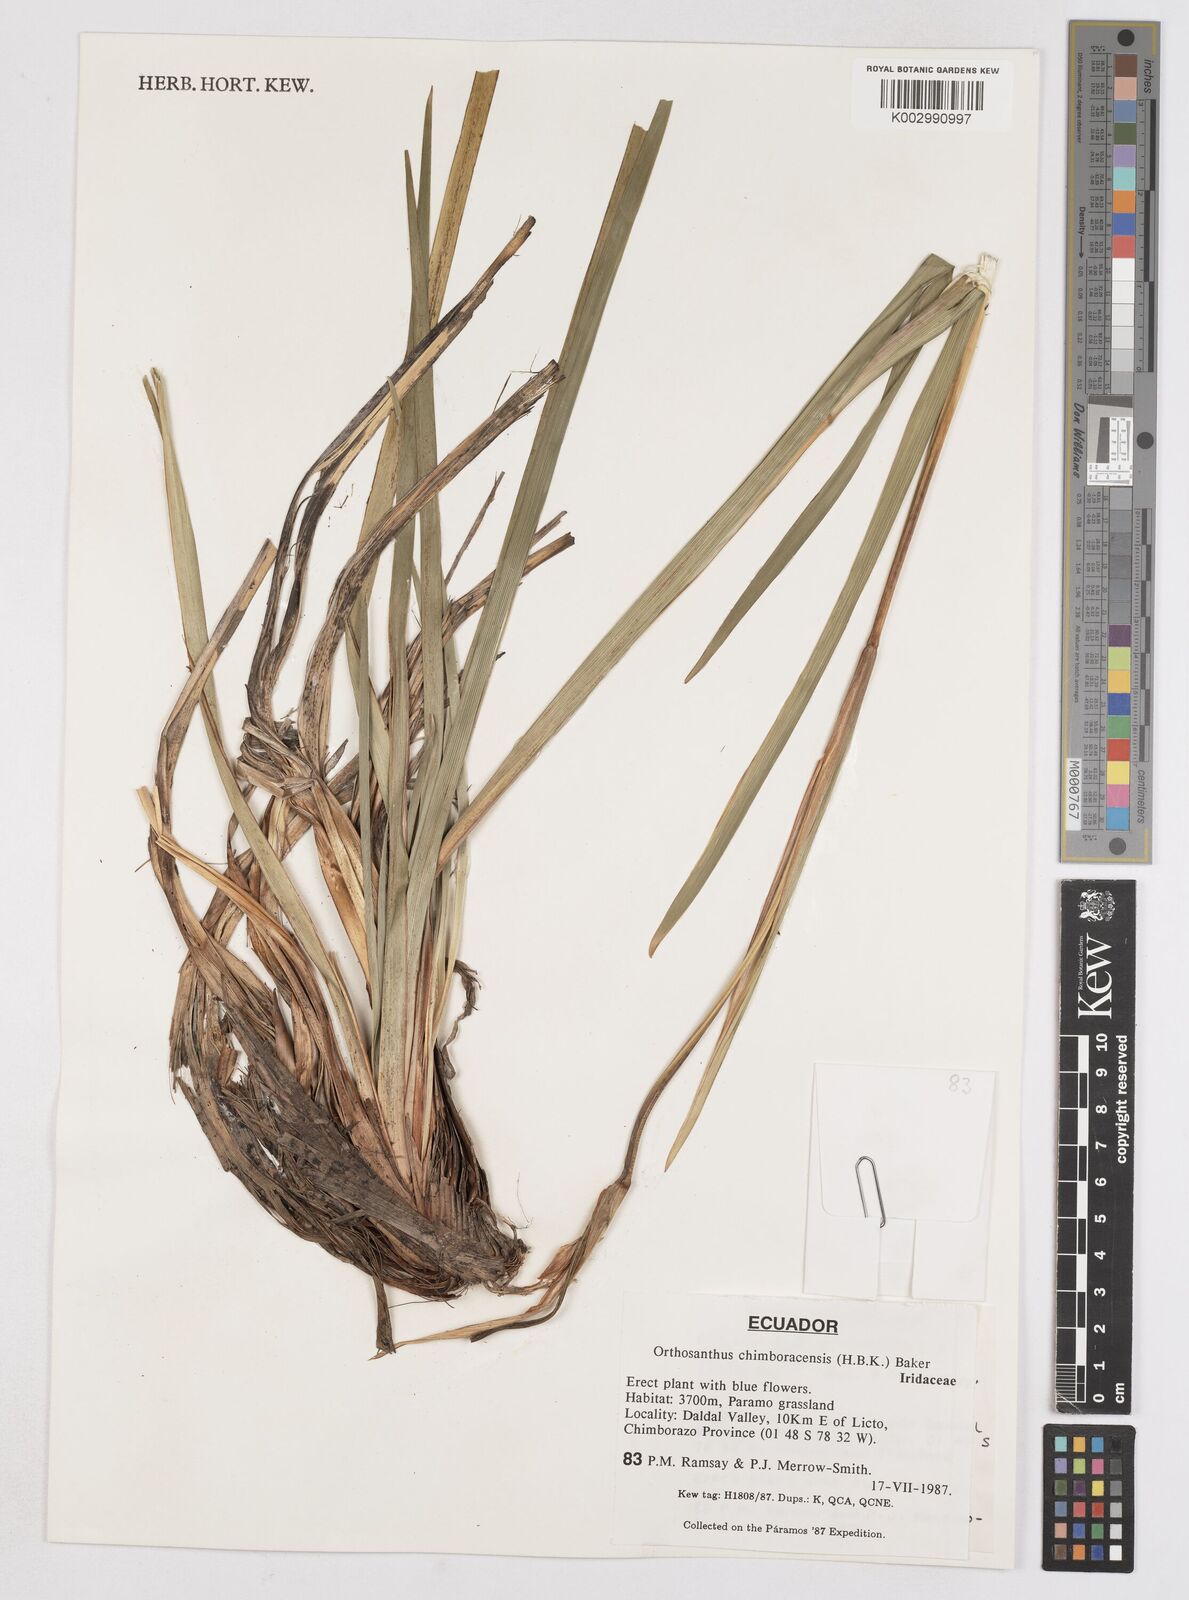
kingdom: Plantae
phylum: Tracheophyta
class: Liliopsida
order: Asparagales
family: Iridaceae
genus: Orthrosanthus
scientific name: Orthrosanthus chimboracensis
